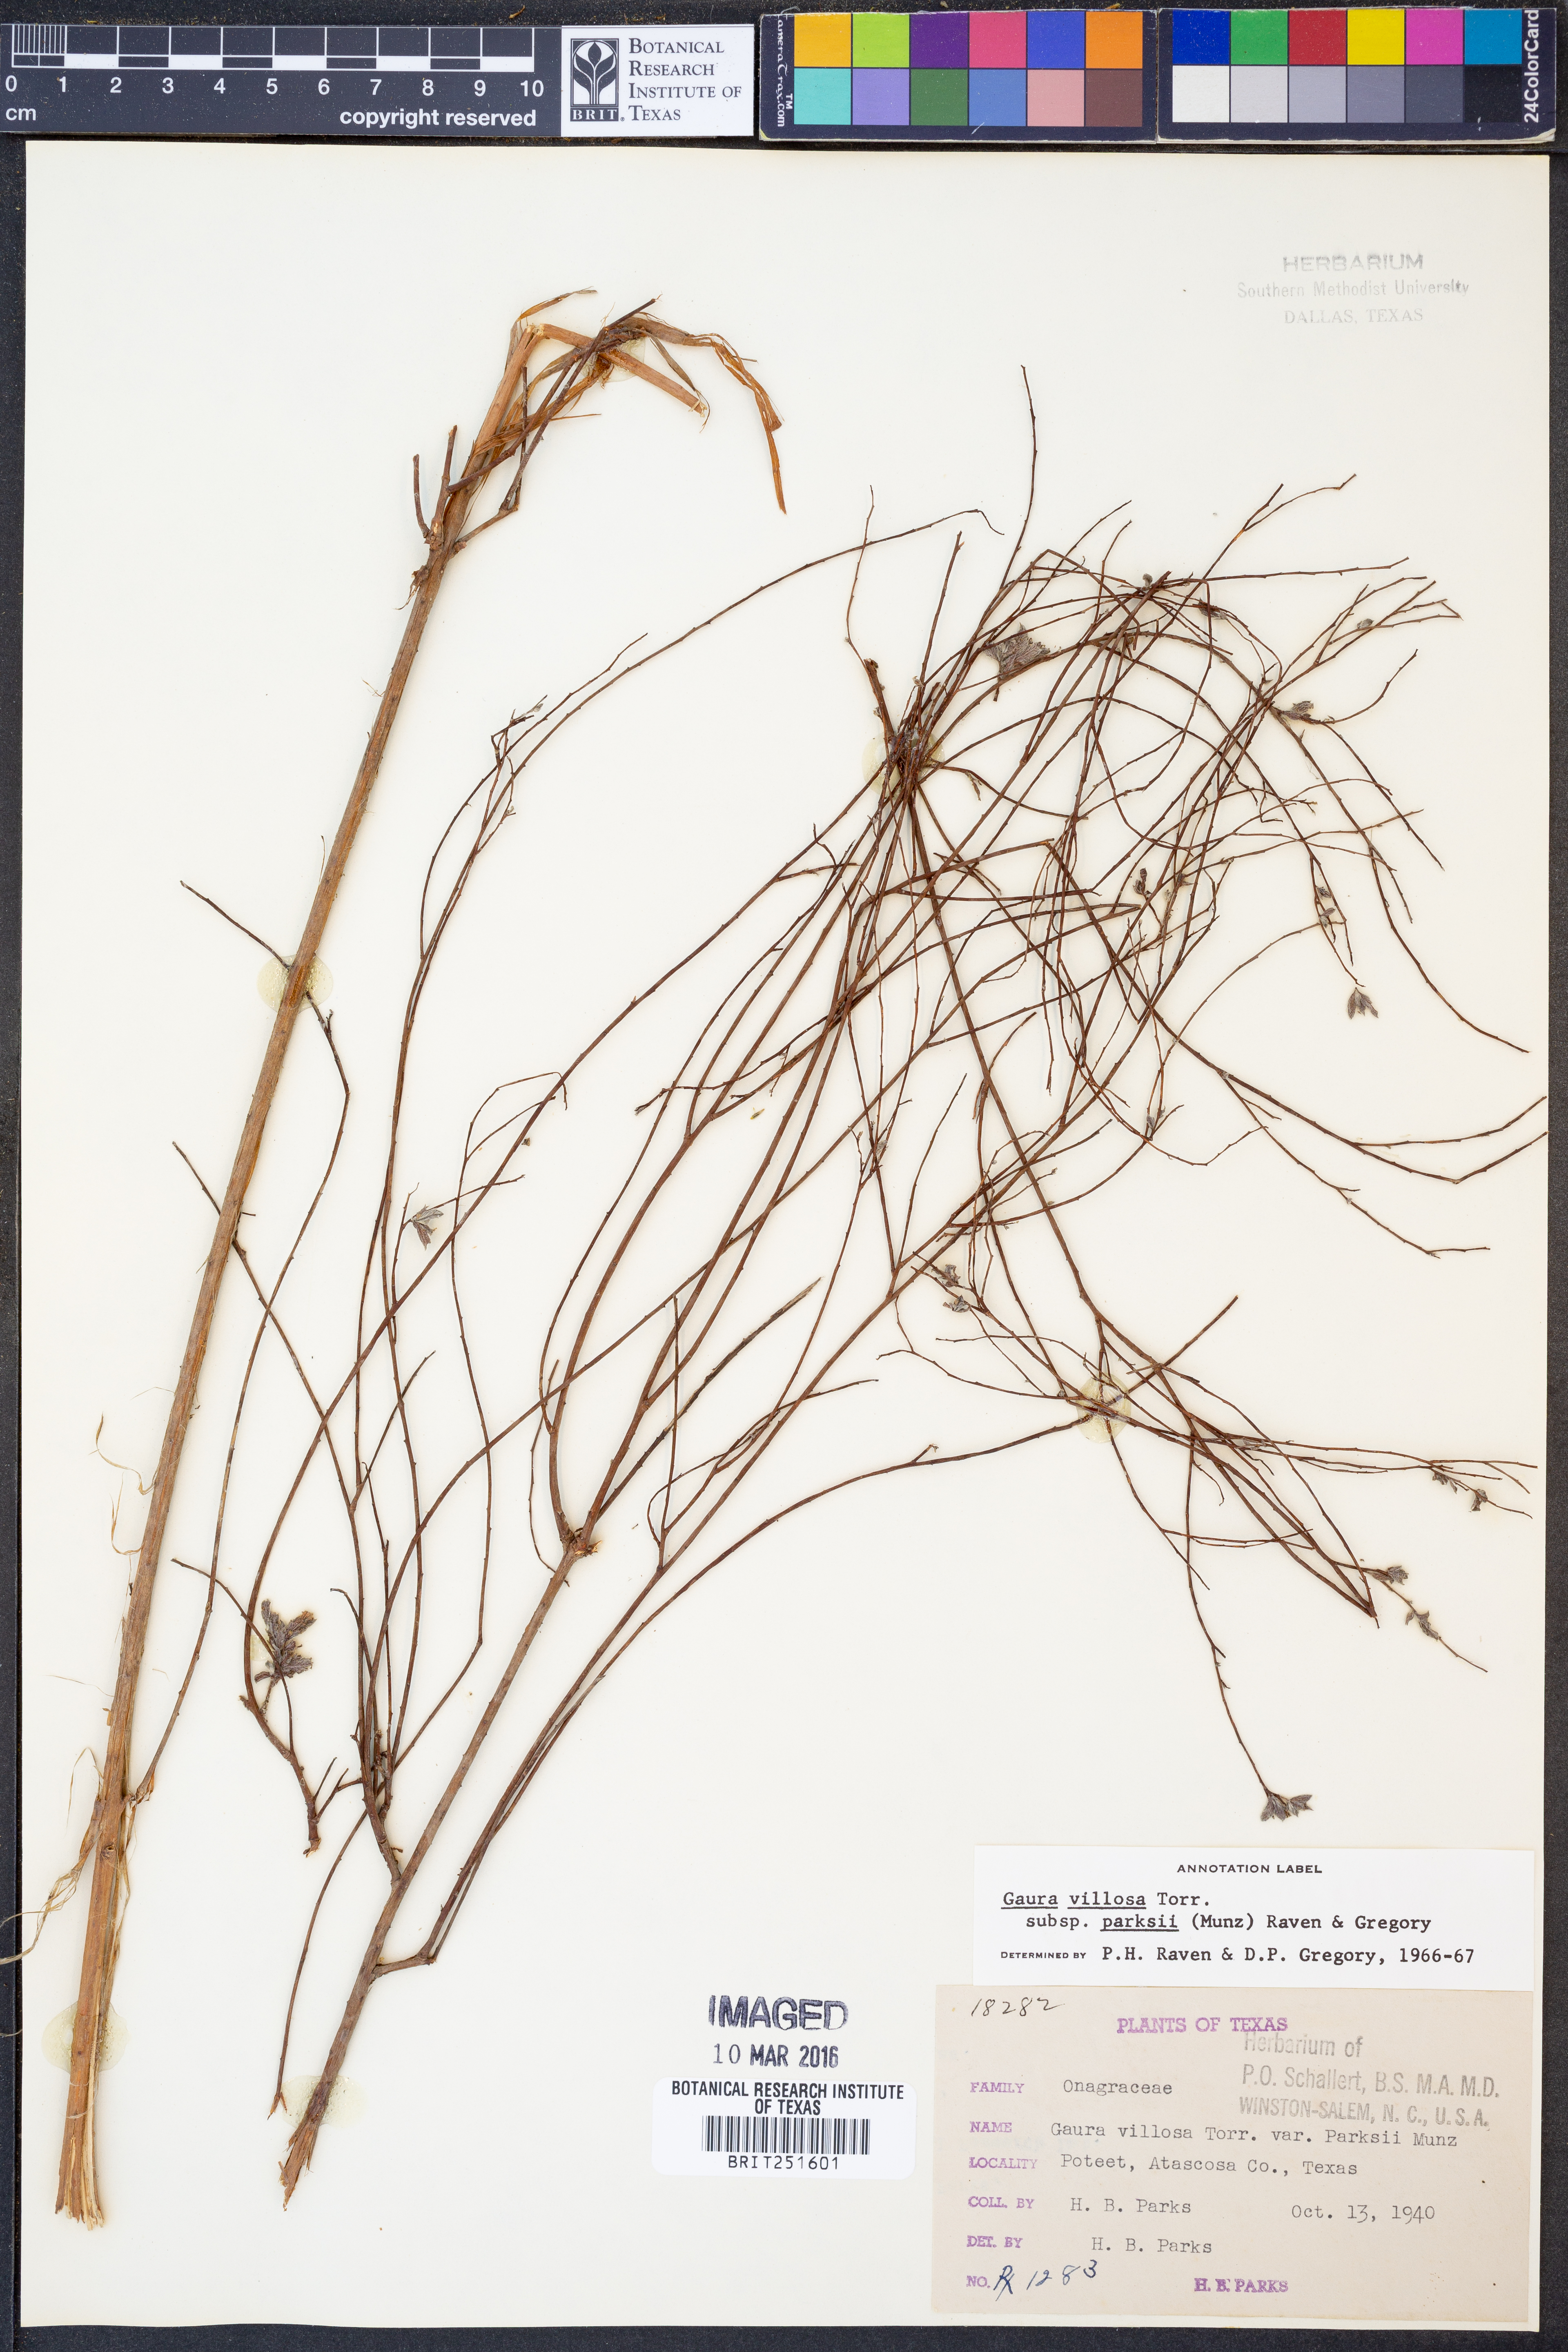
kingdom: Plantae
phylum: Tracheophyta
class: Magnoliopsida
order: Myrtales
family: Onagraceae
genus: Oenothera
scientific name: Oenothera cinerea
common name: Woolly beeblossom
